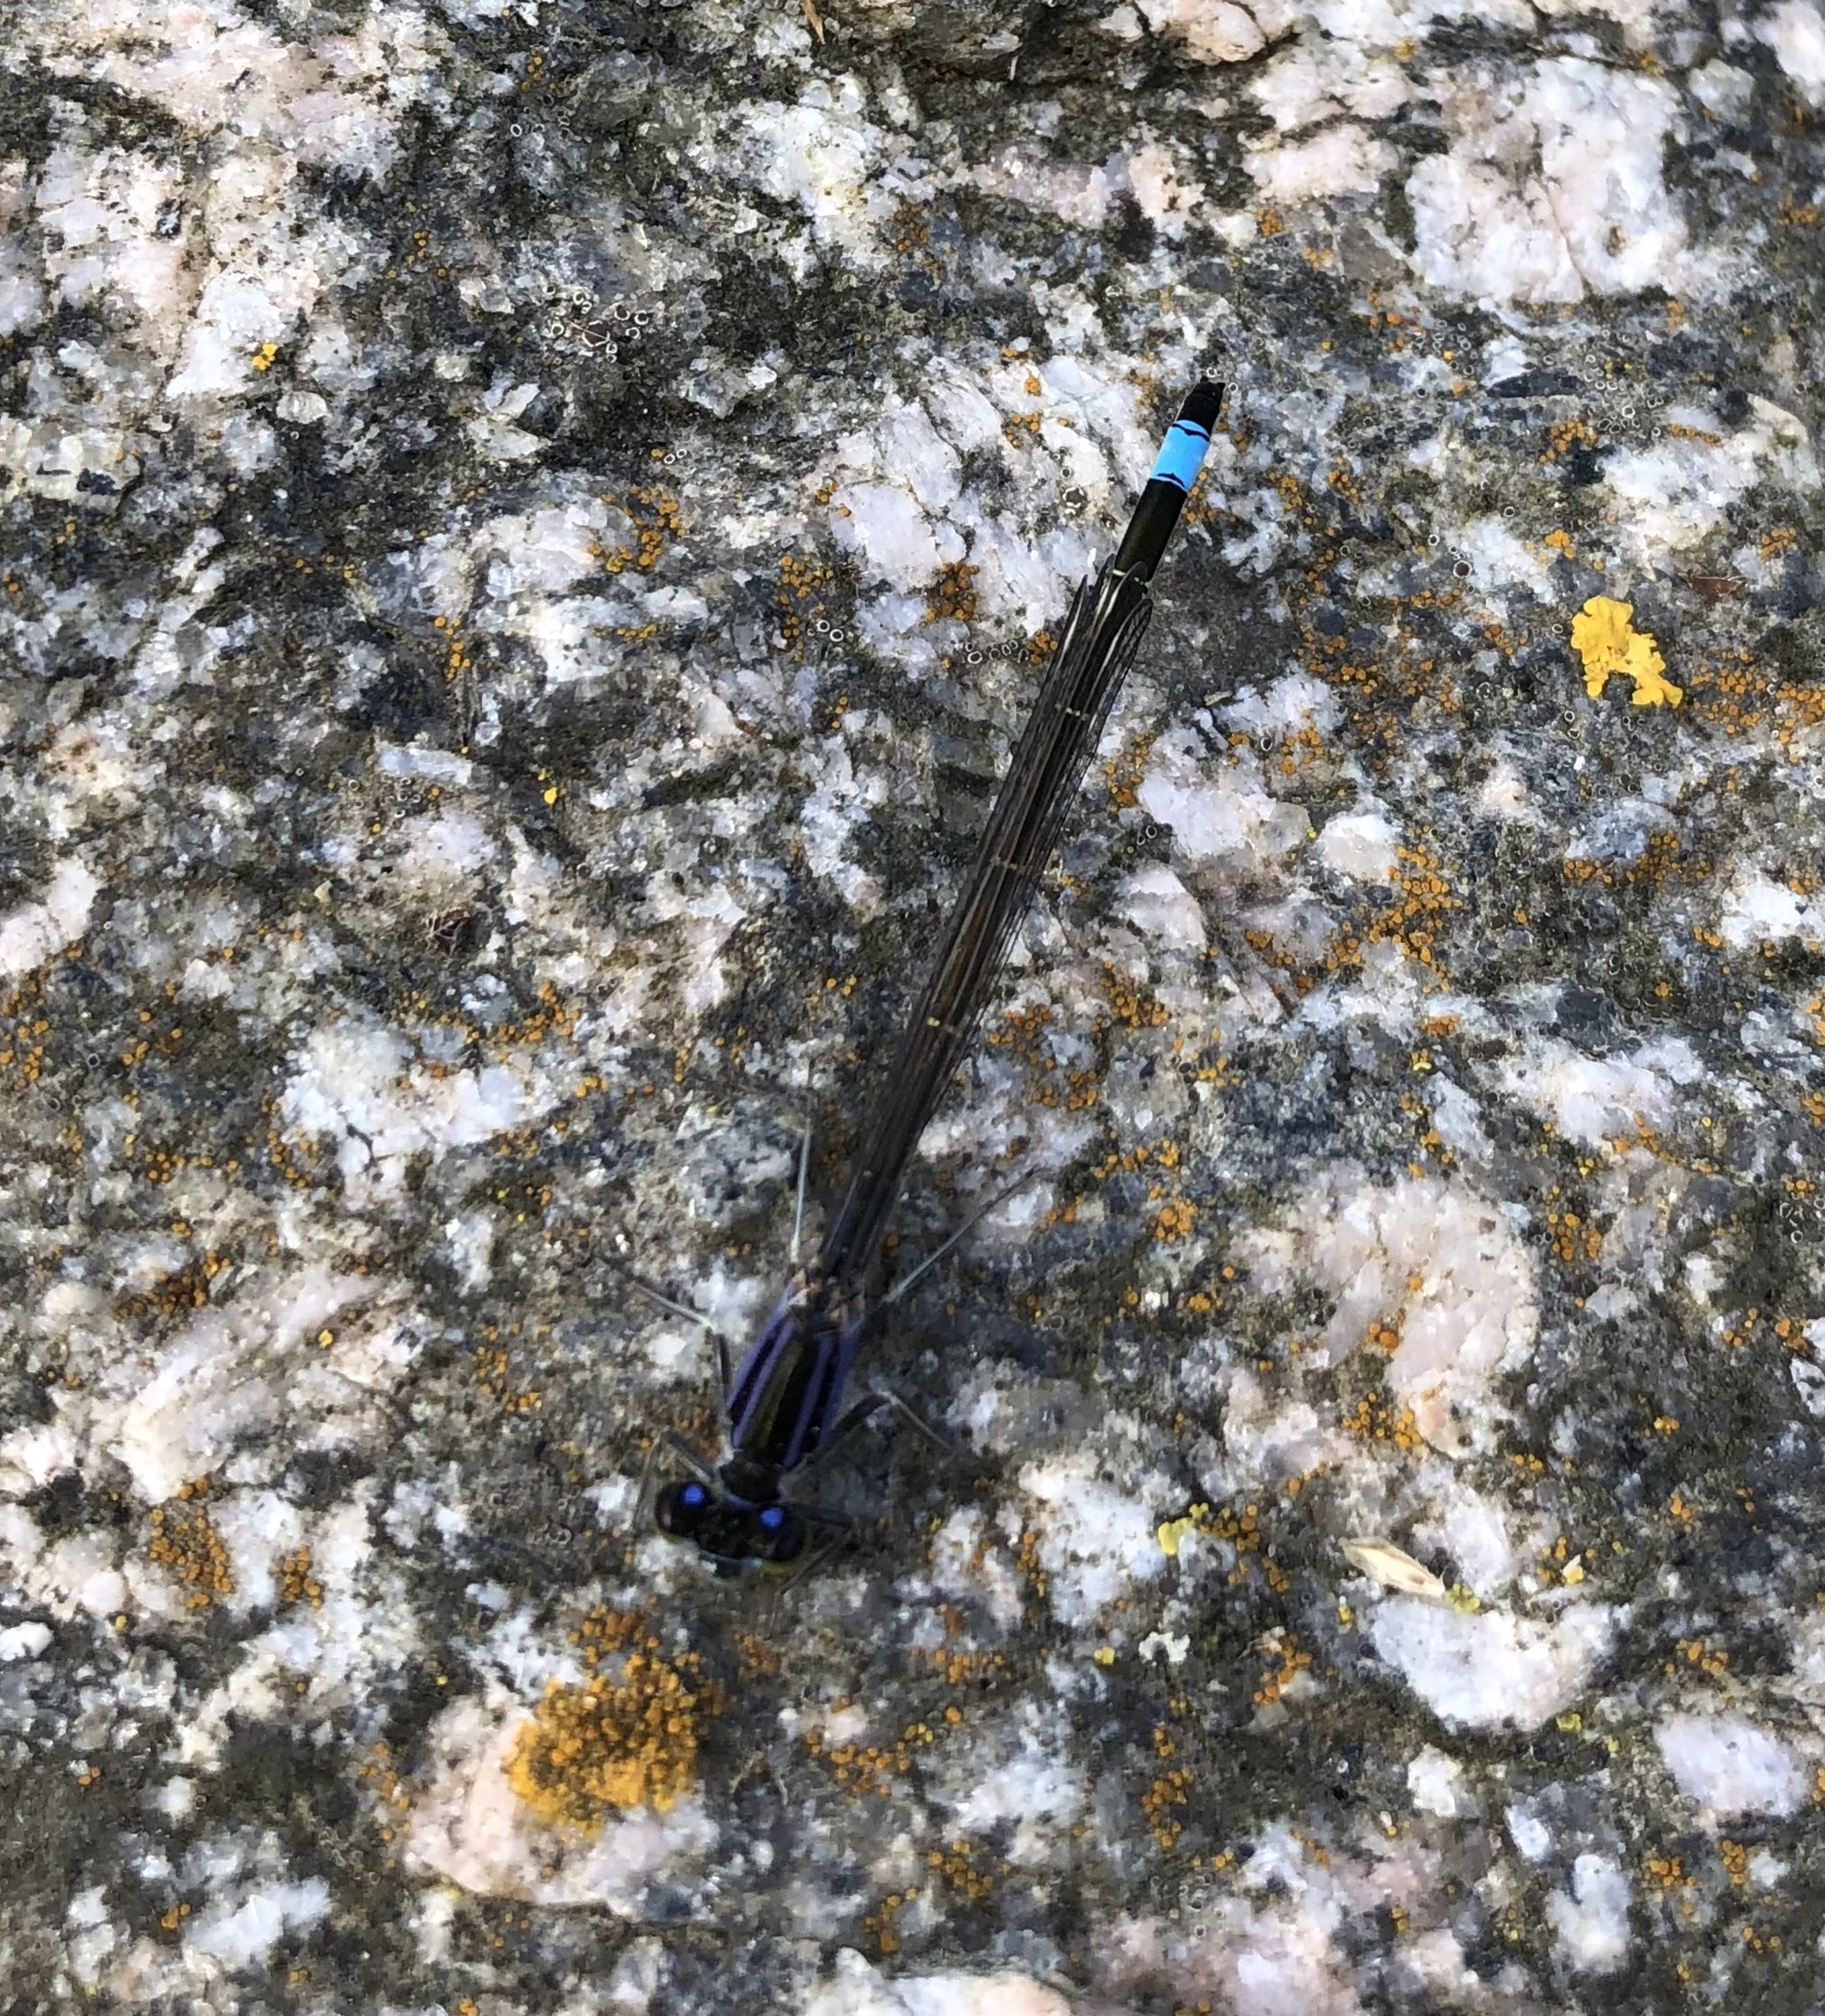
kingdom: Animalia
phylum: Arthropoda
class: Insecta
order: Odonata
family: Coenagrionidae
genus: Ischnura
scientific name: Ischnura elegans
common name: Stor farvevandnymfe
